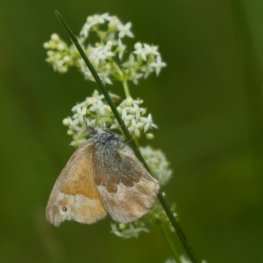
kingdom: Animalia
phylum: Arthropoda
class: Insecta
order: Lepidoptera
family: Nymphalidae
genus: Coenonympha
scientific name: Coenonympha tullia
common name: Large Heath
